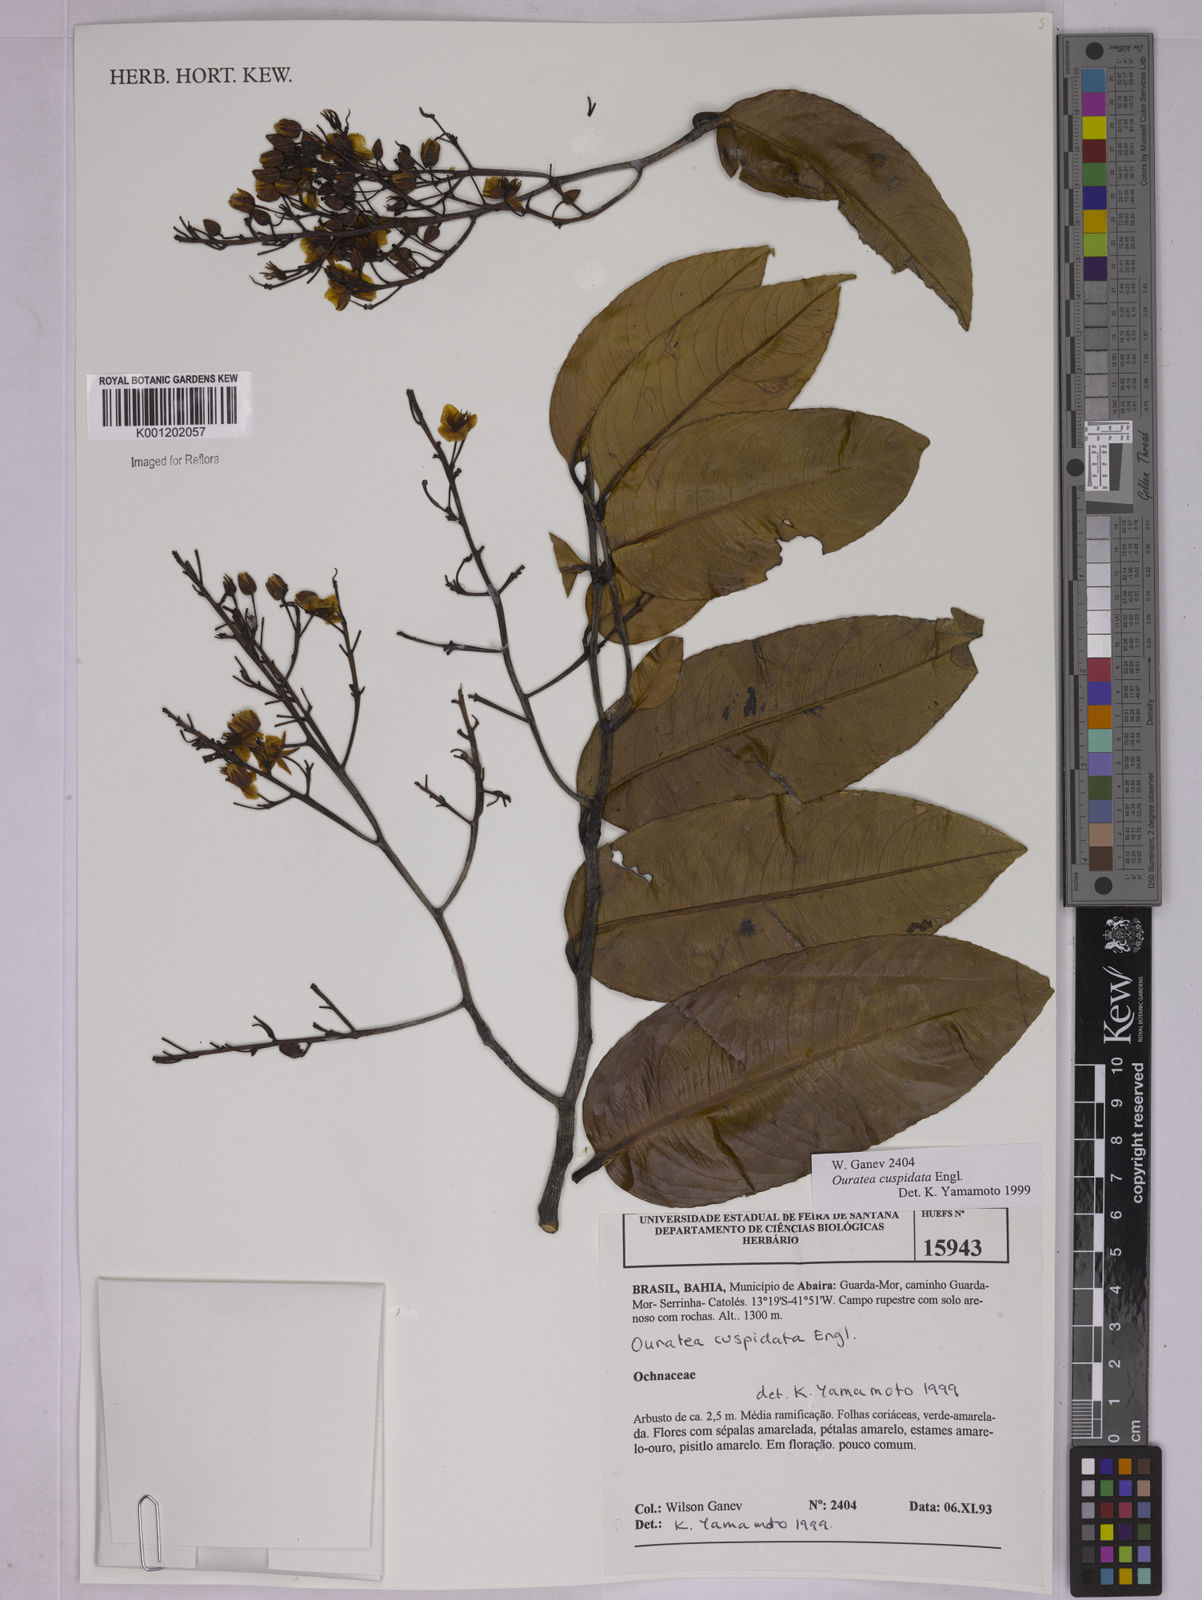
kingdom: Plantae
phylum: Tracheophyta
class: Magnoliopsida
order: Malpighiales
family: Ochnaceae
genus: Ouratea
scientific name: Ouratea cuspidata
